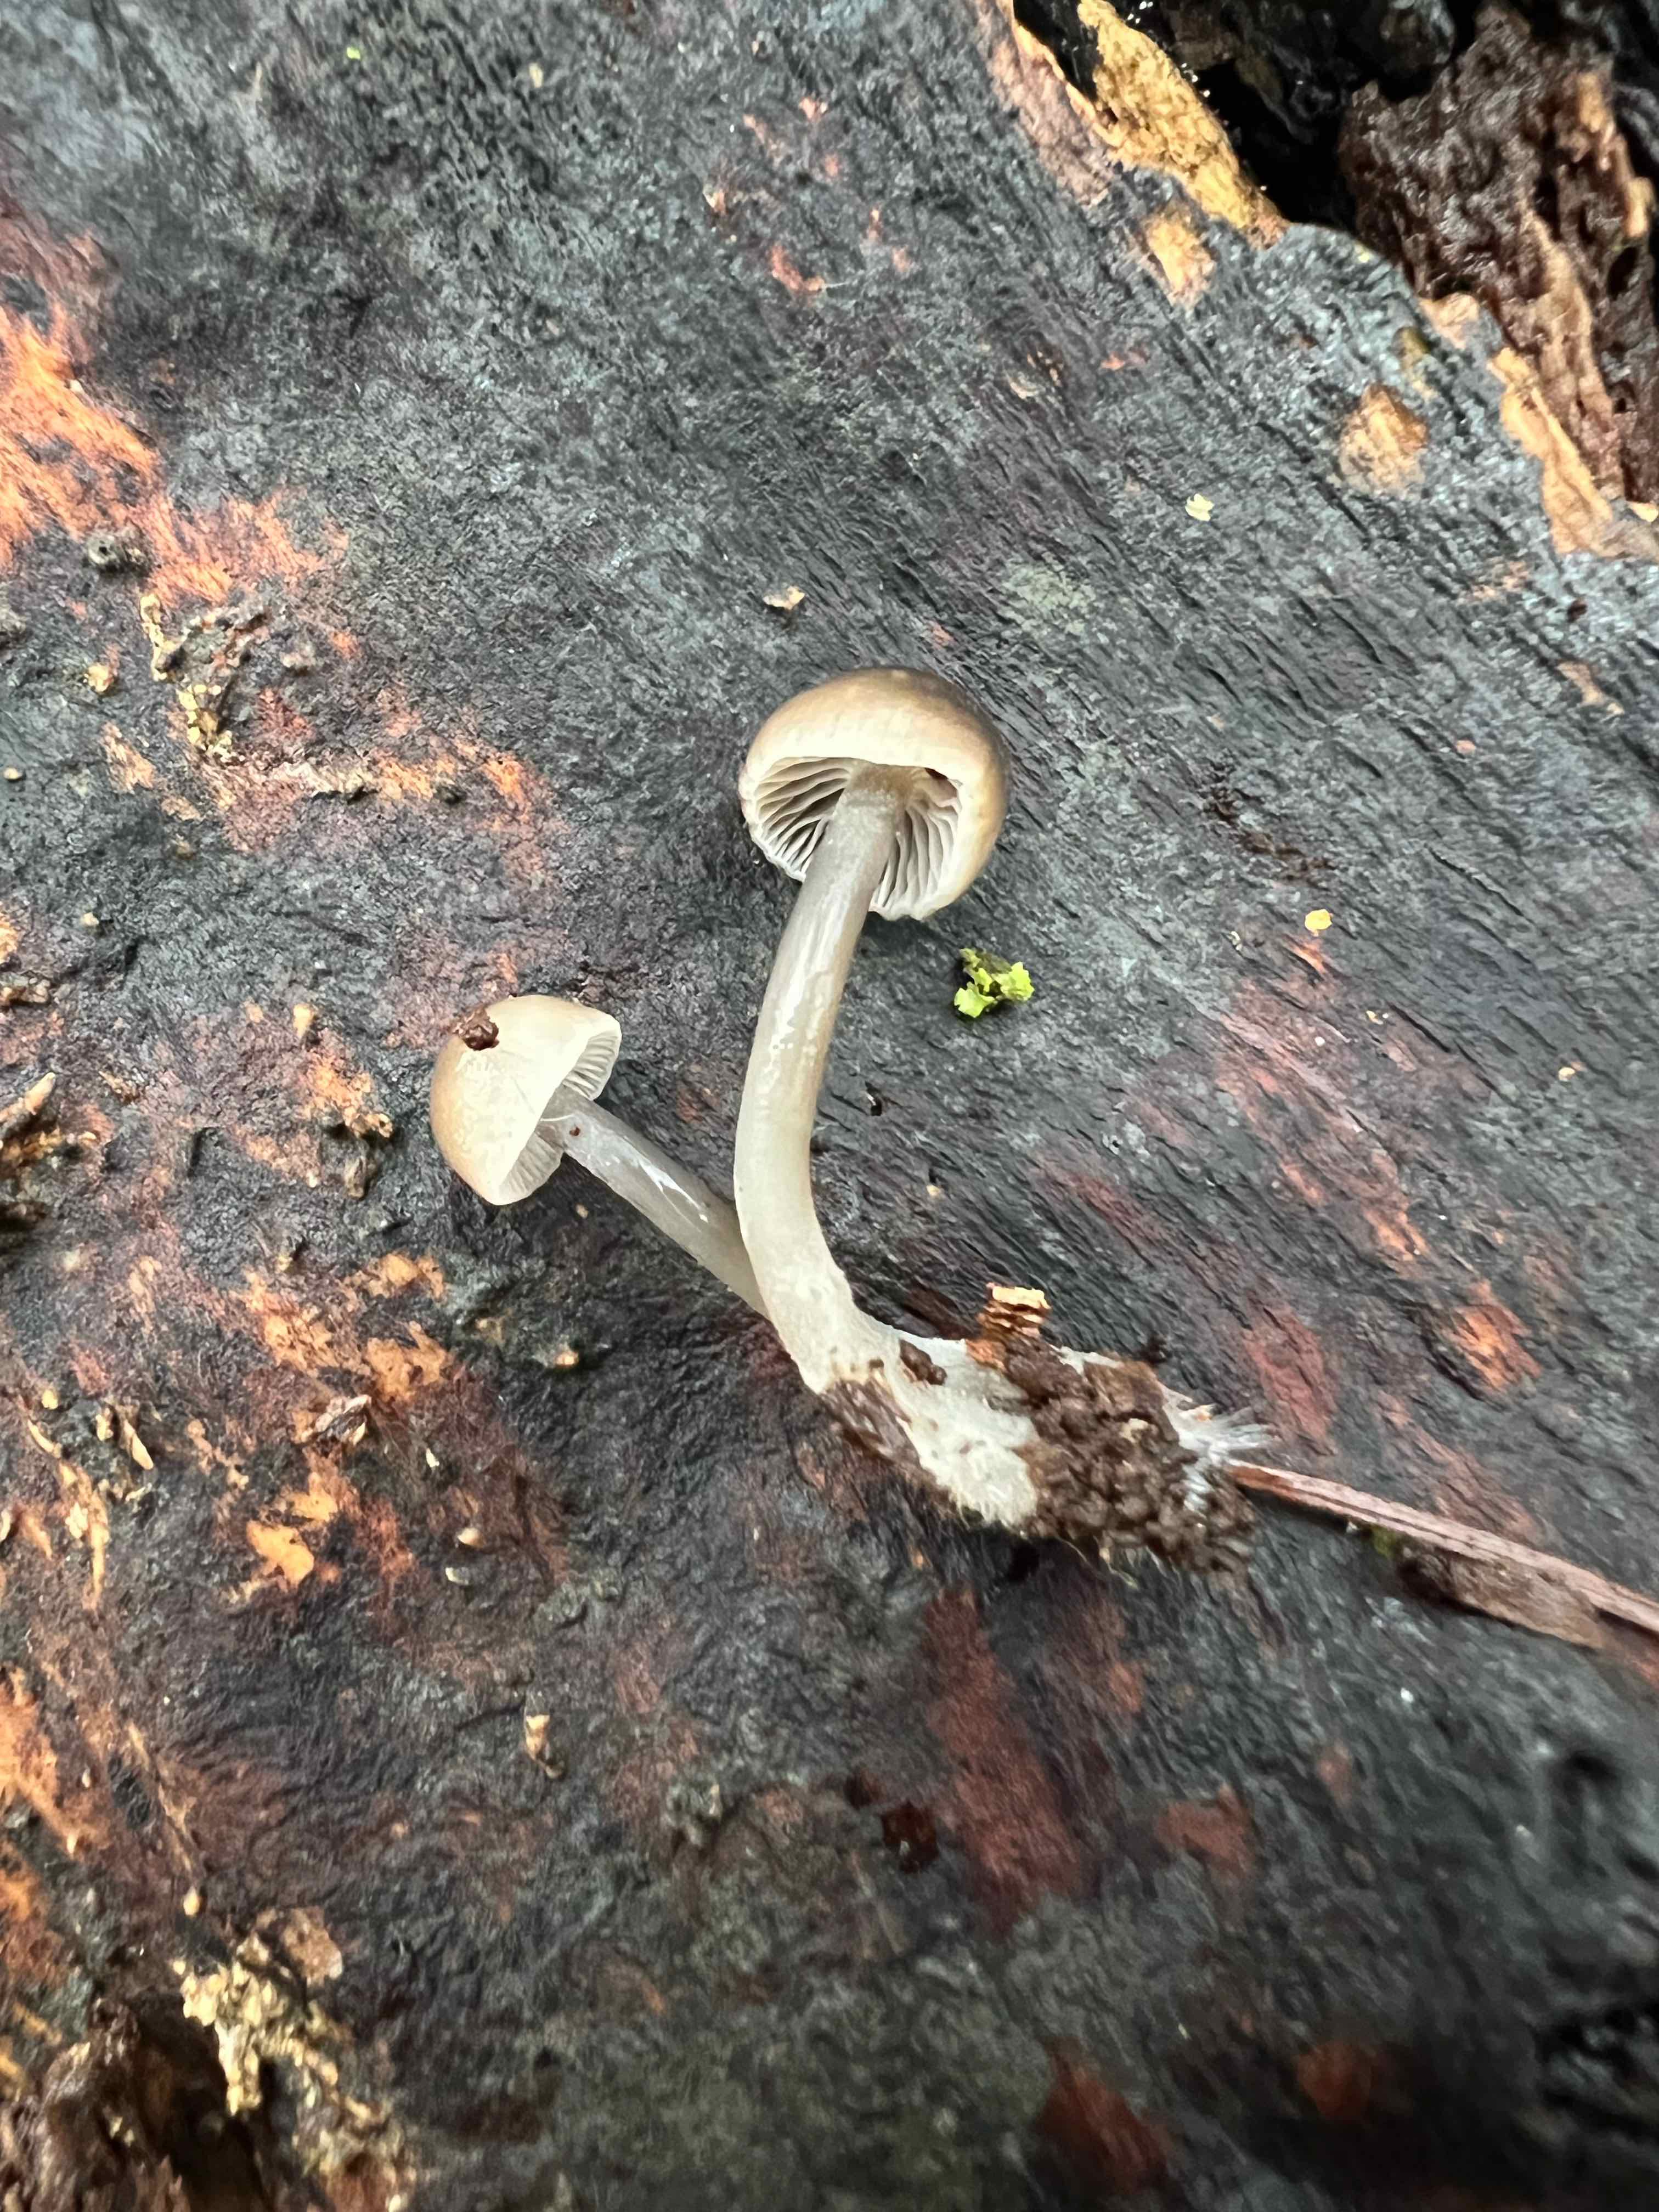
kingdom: Fungi
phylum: Basidiomycota
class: Agaricomycetes
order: Agaricales
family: Mycenaceae
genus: Mycena
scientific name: Mycena tintinnabulum
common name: vinter-huesvamp
